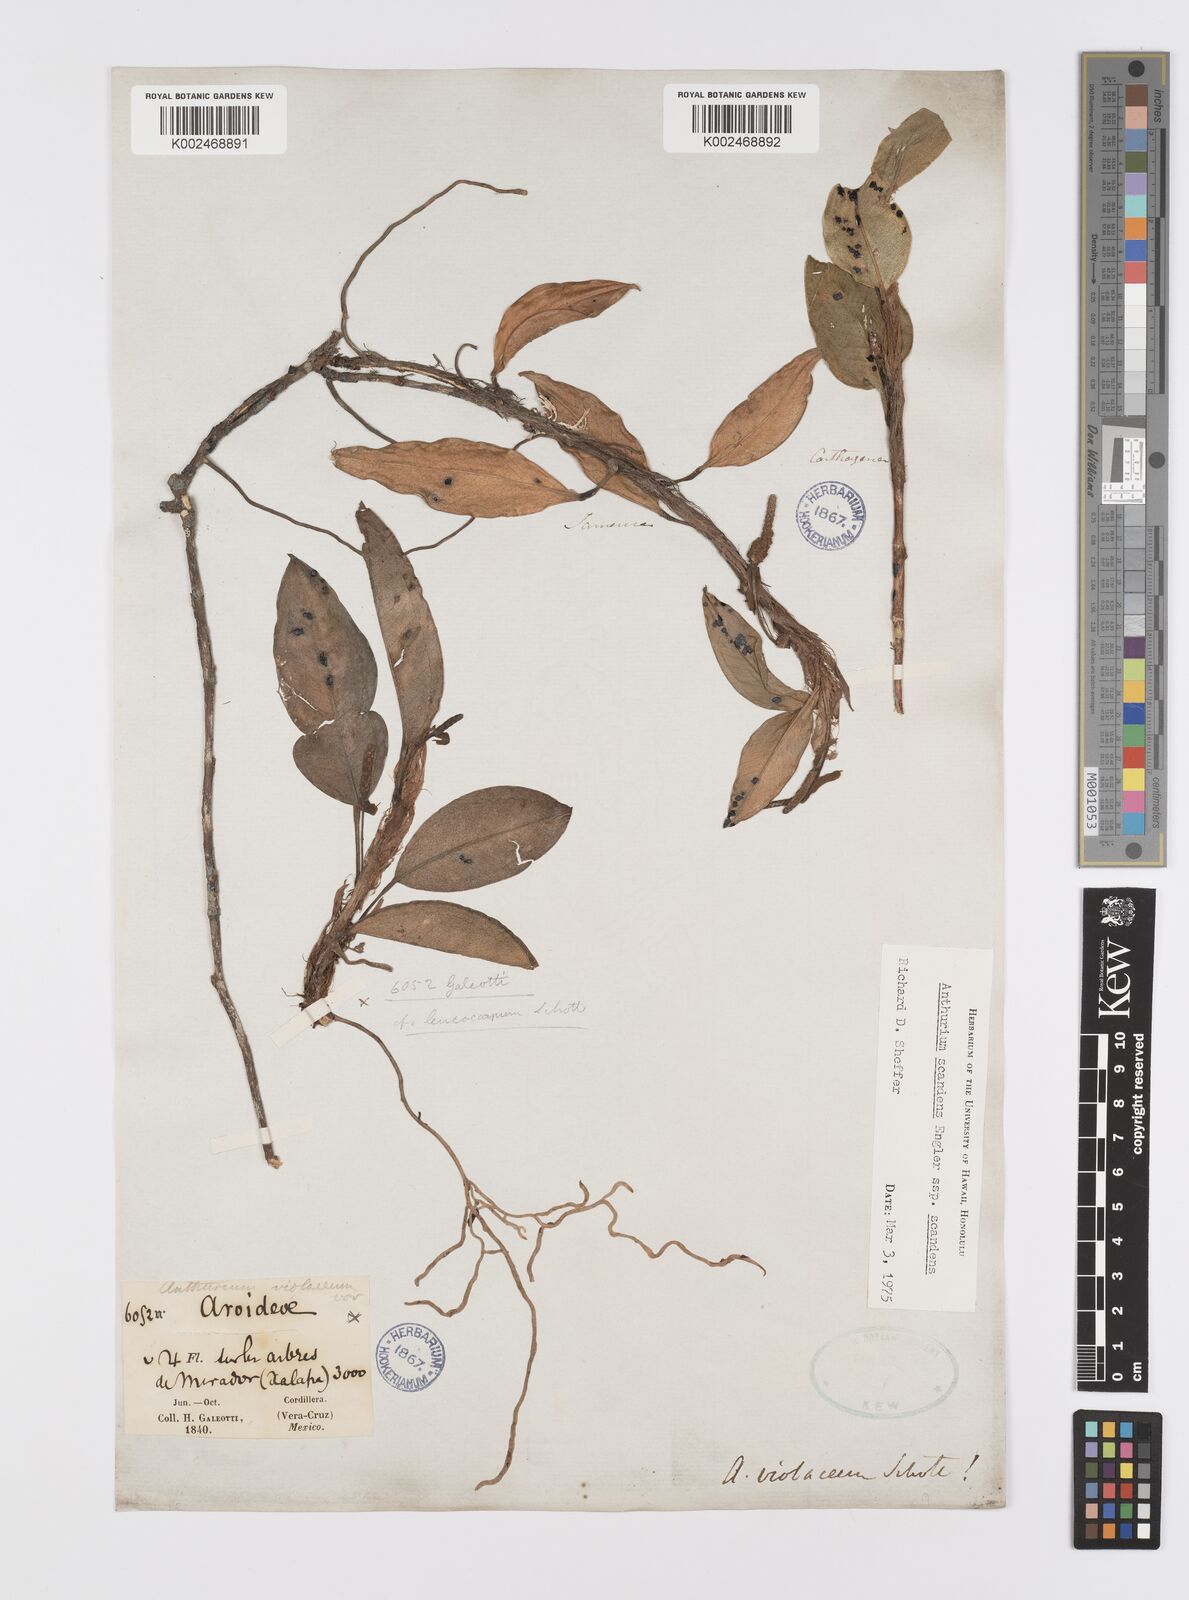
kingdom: Plantae
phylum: Tracheophyta
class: Liliopsida
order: Alismatales
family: Araceae
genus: Anthurium
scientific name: Anthurium scandens
